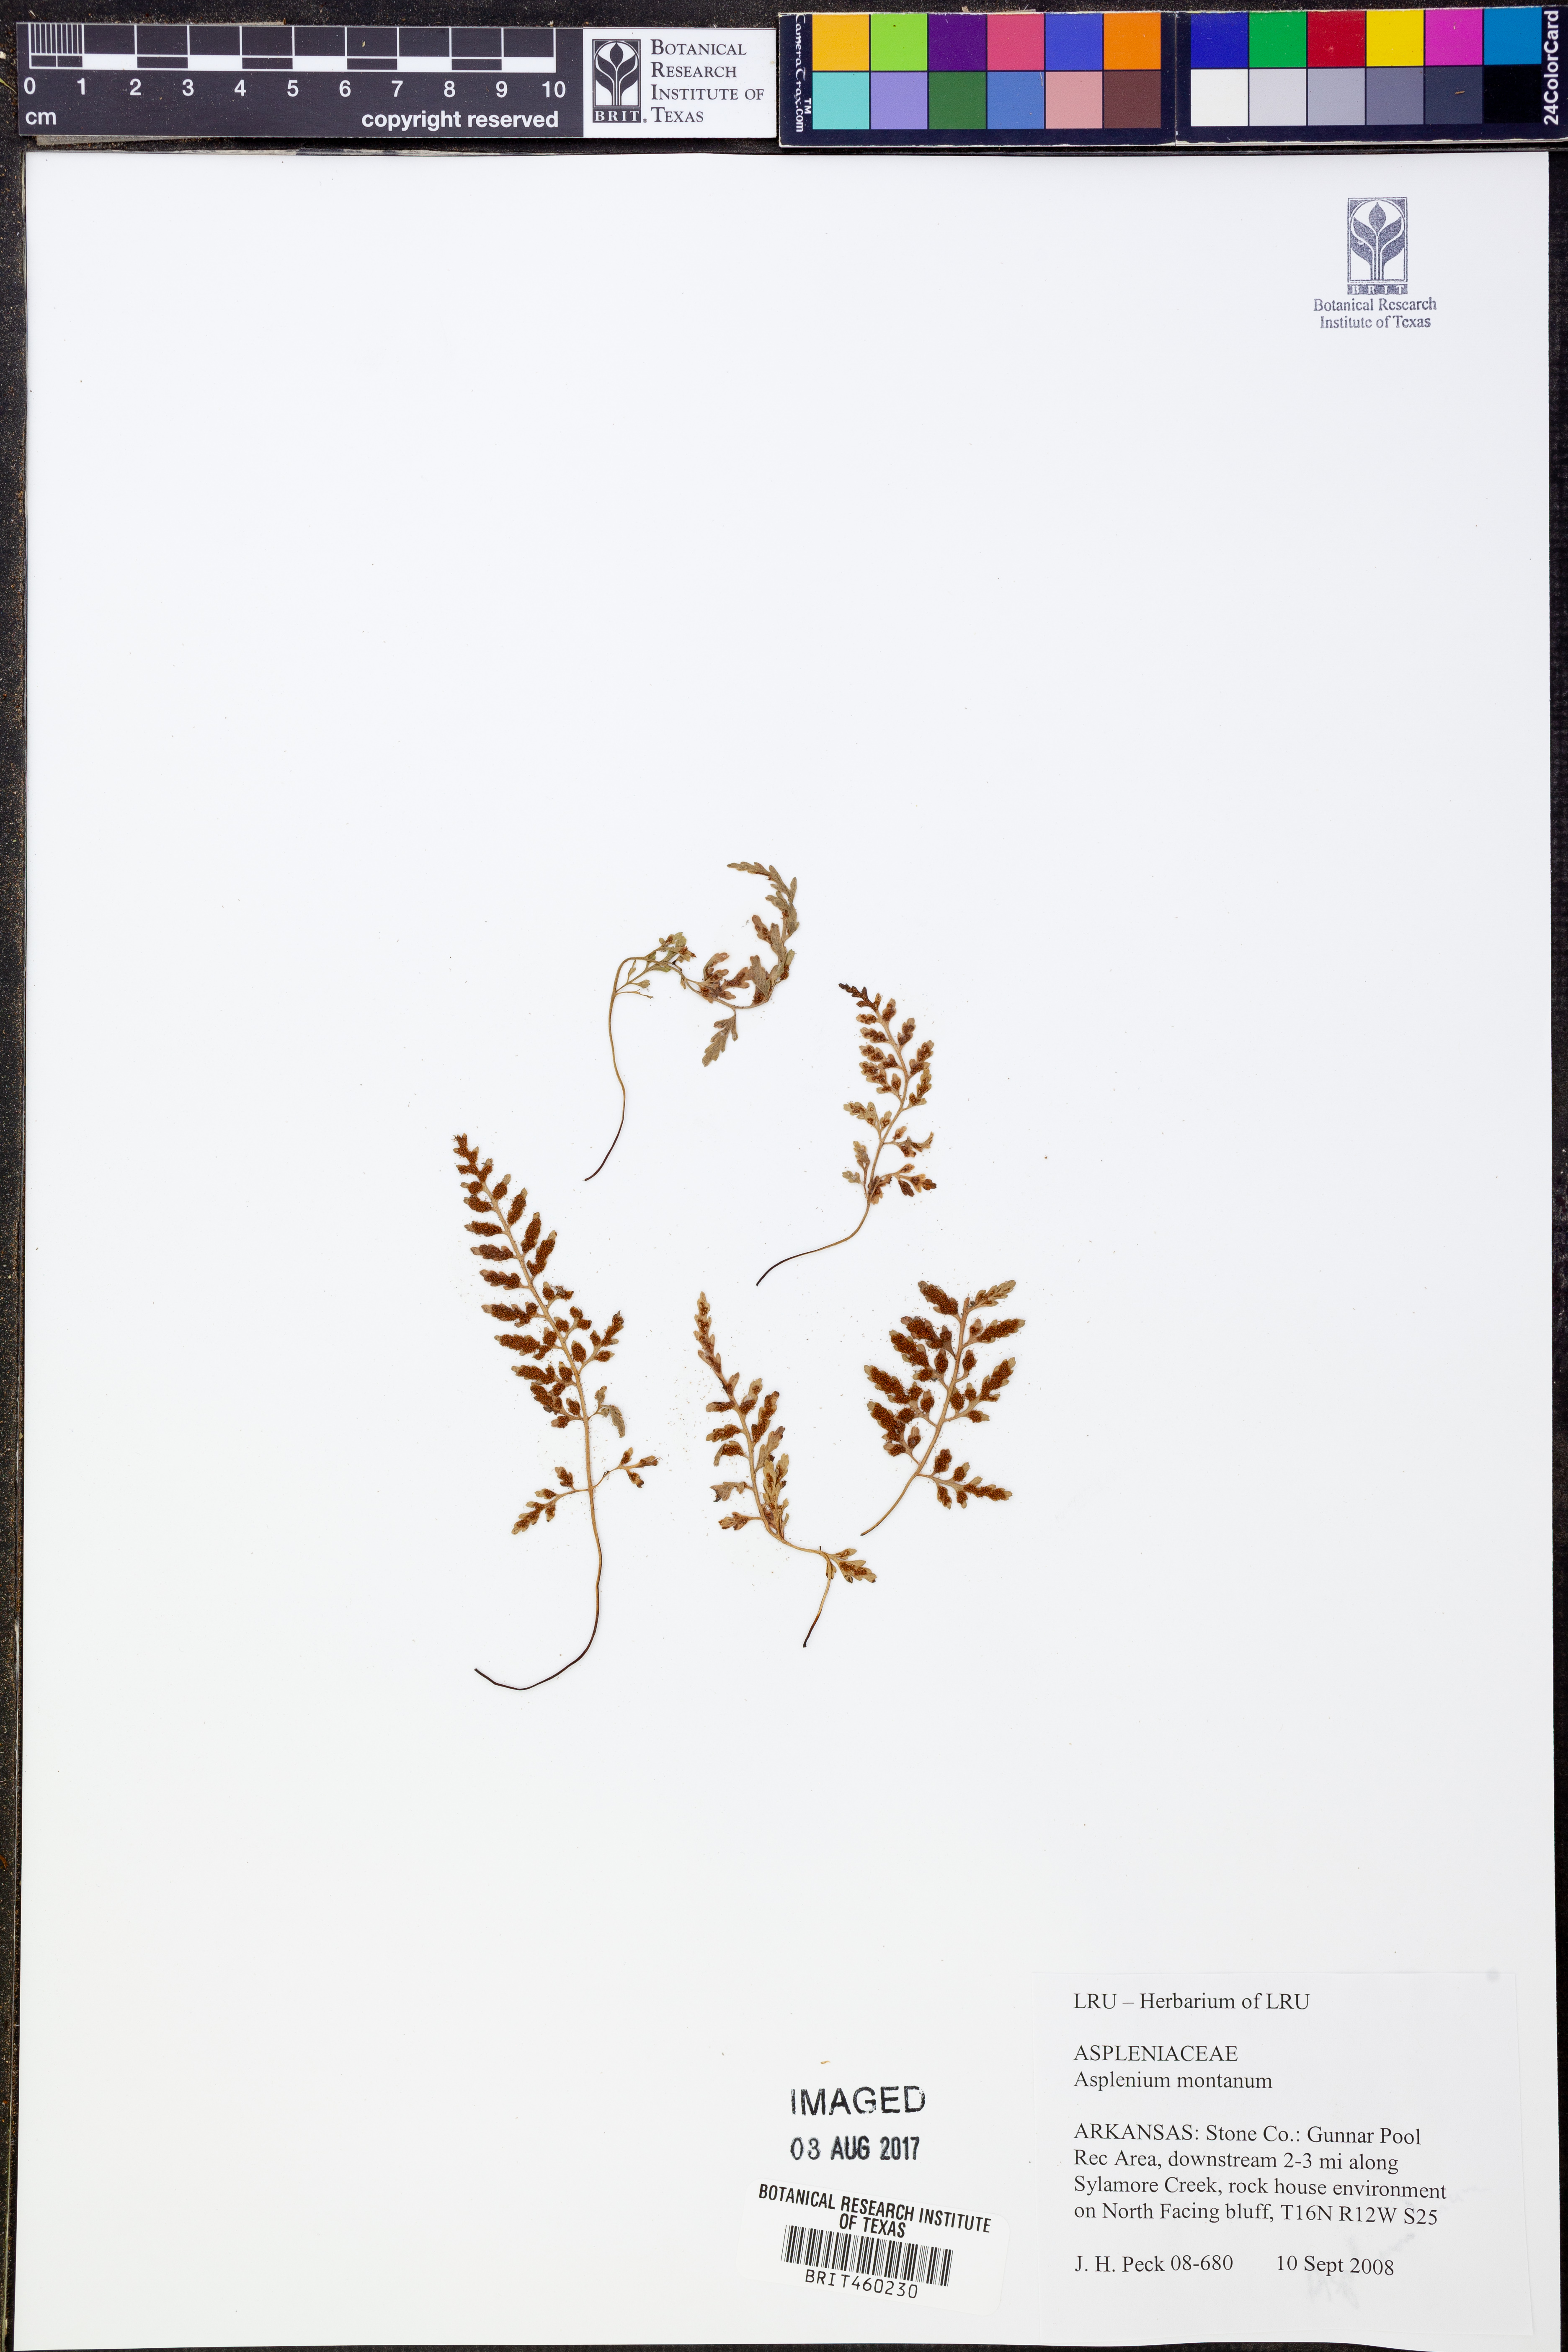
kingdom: Plantae
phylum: Tracheophyta
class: Polypodiopsida
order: Polypodiales
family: Aspleniaceae
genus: Asplenium
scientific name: Asplenium montanum
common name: Mountain spleenwort
